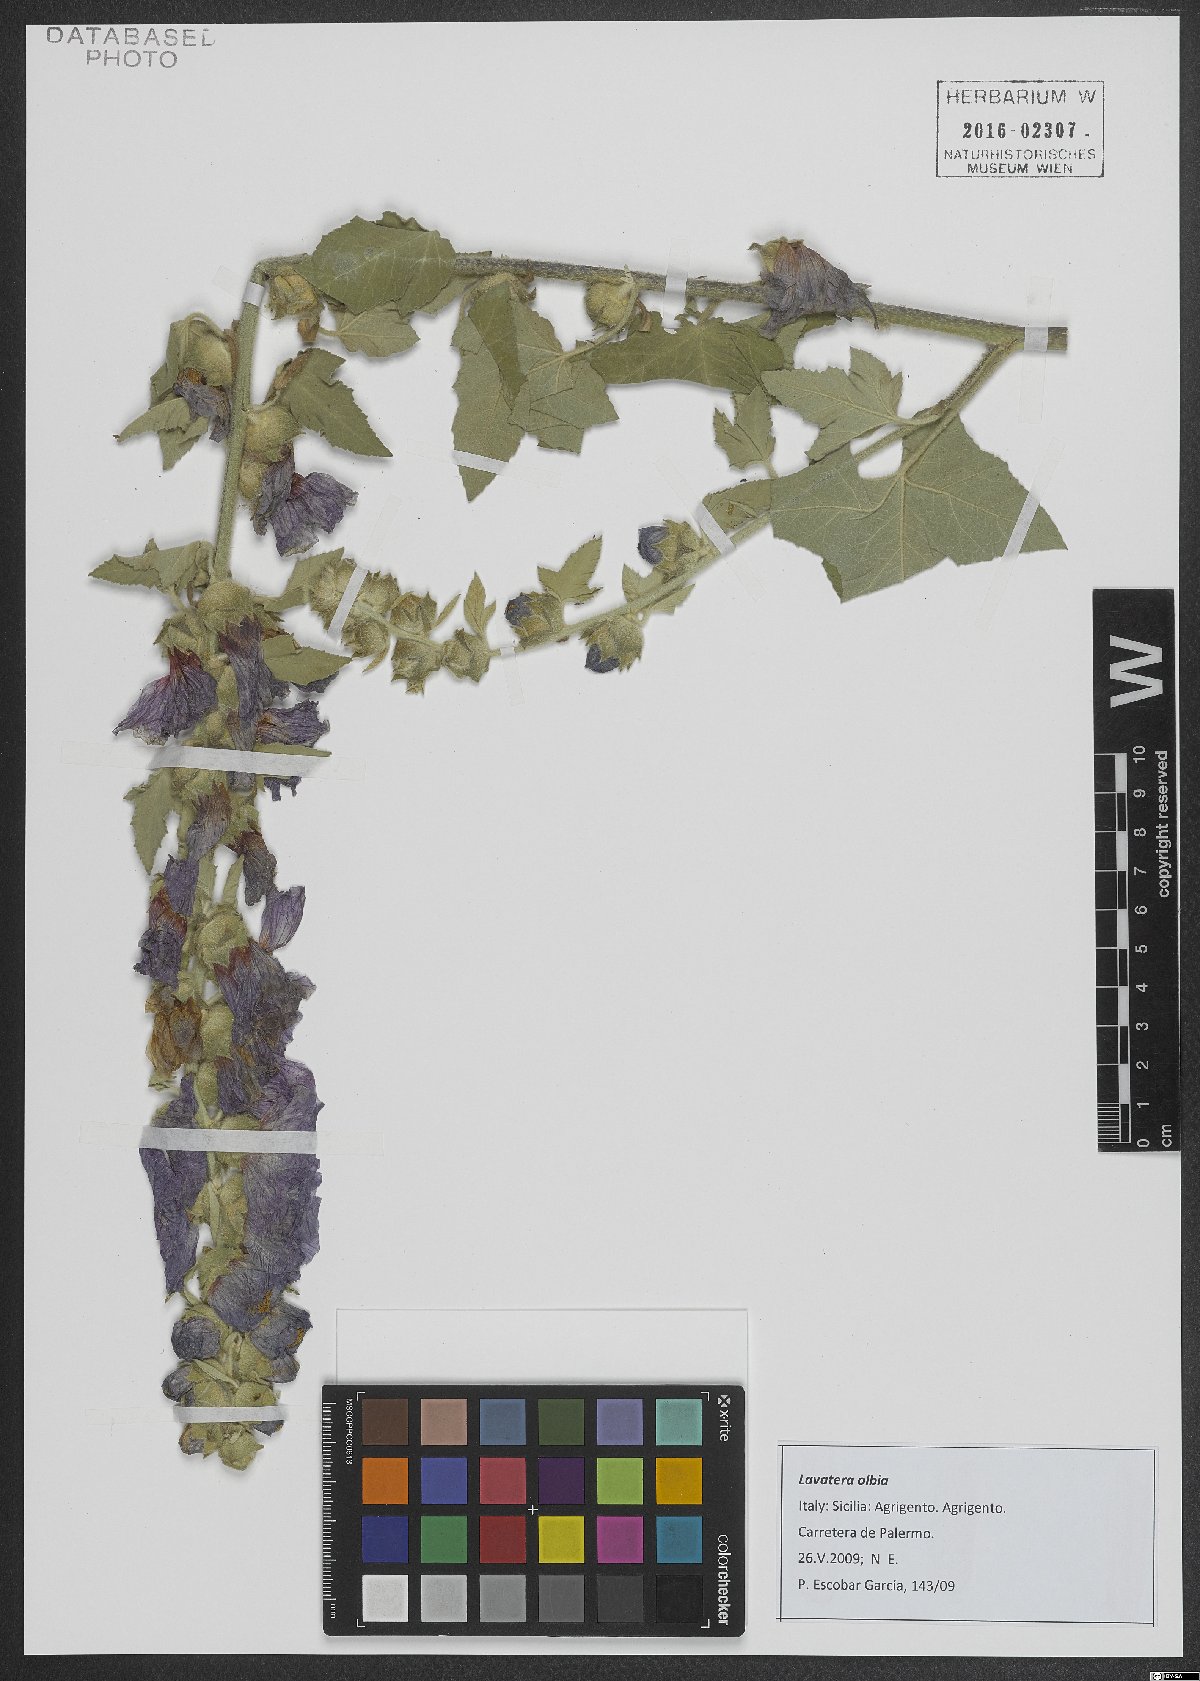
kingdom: Plantae
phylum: Tracheophyta
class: Magnoliopsida
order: Malvales
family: Malvaceae
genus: Malva
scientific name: Malva olbia
